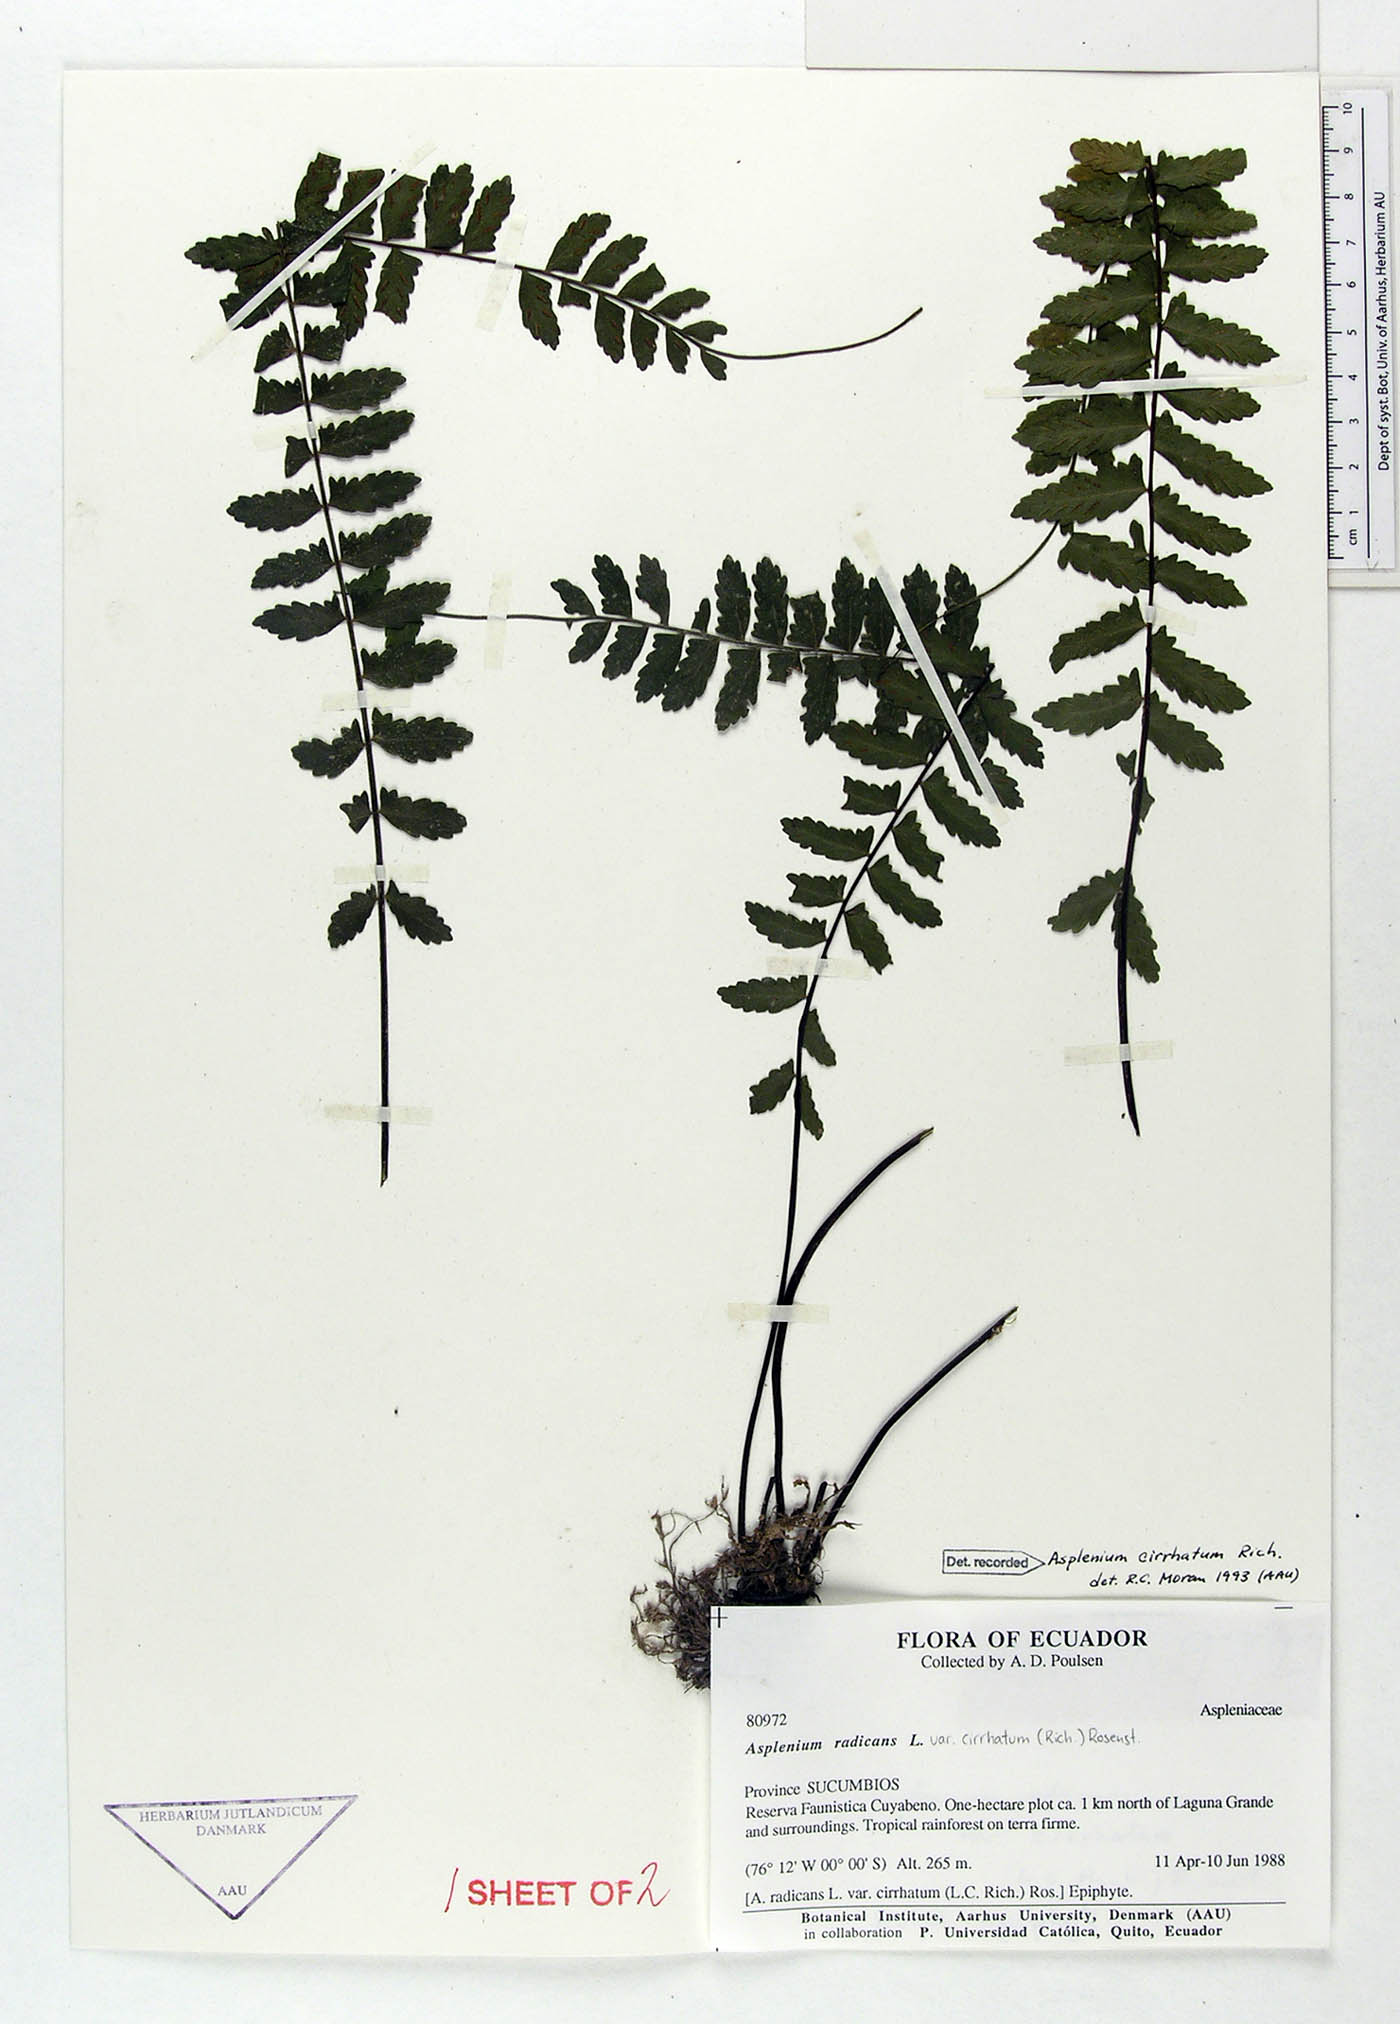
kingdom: Plantae
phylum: Tracheophyta
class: Polypodiopsida
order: Polypodiales
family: Aspleniaceae
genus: Asplenium
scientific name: Asplenium cirrhatum
